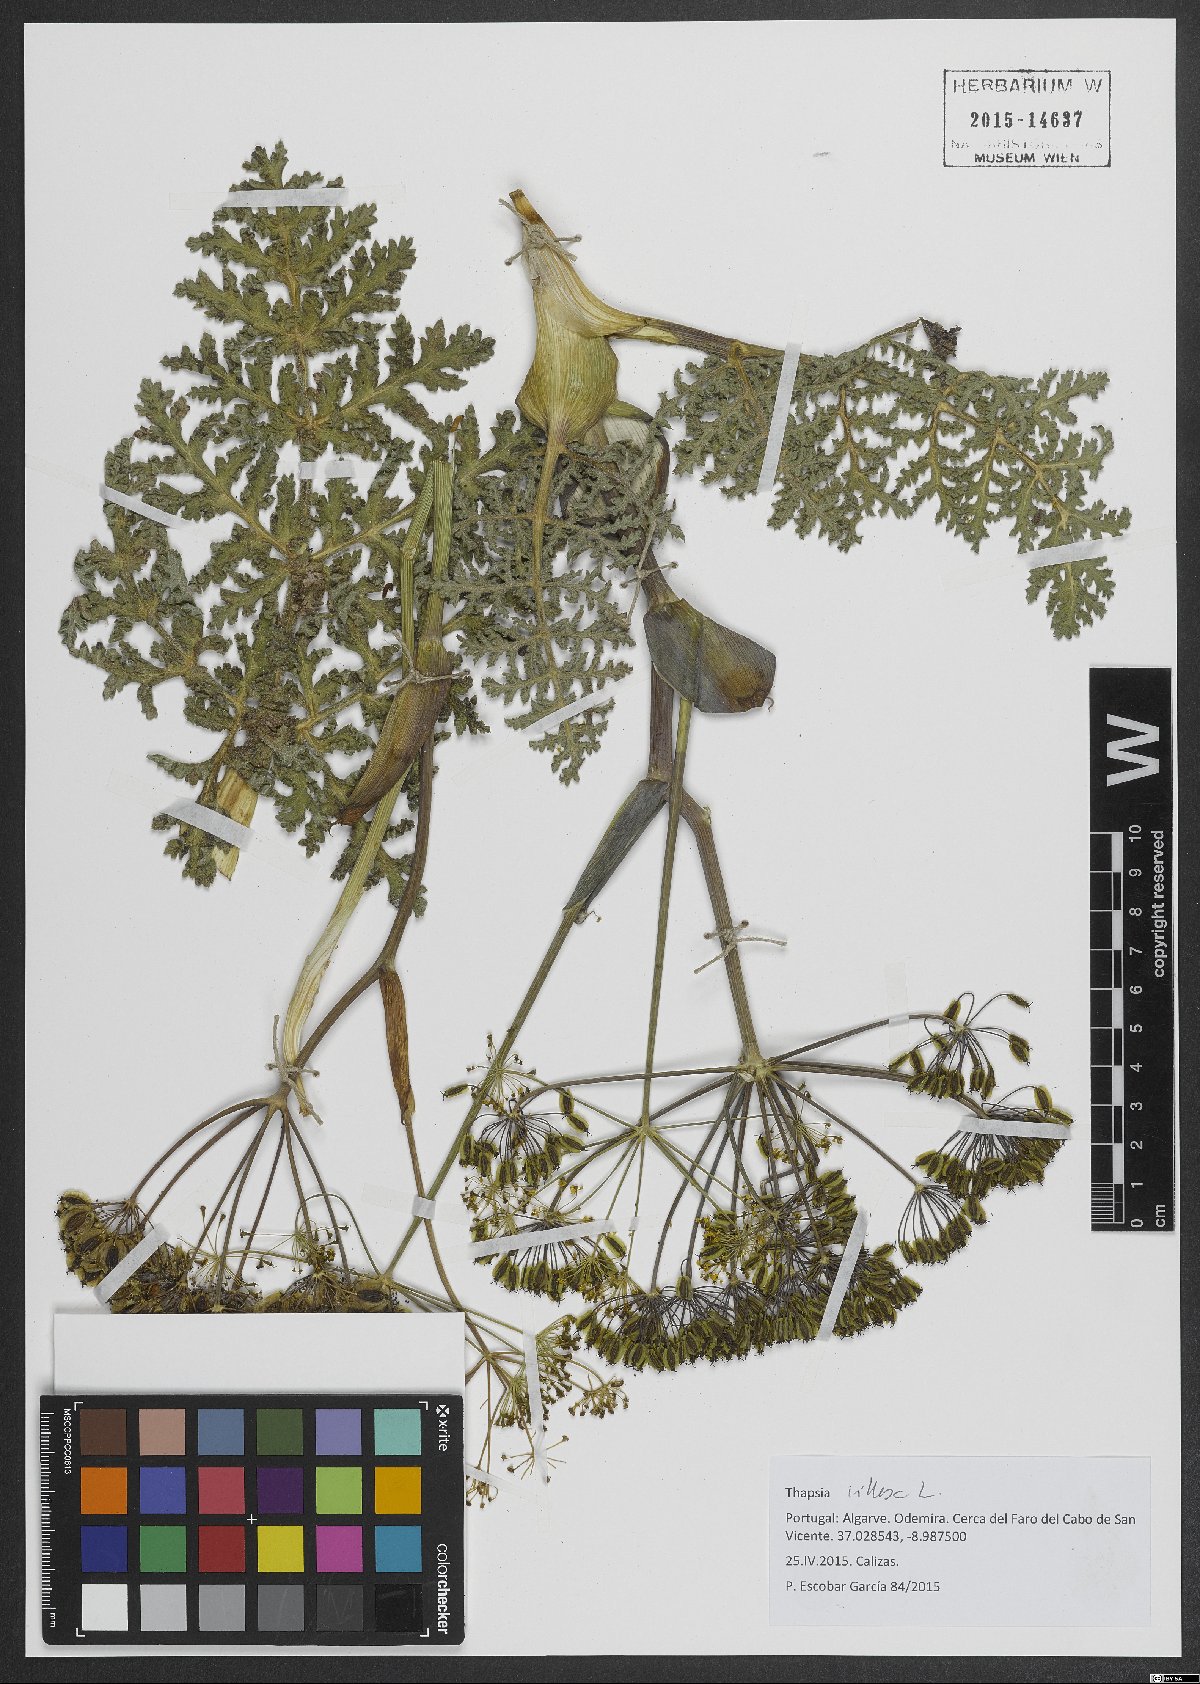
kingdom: Plantae
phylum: Tracheophyta
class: Magnoliopsida
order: Apiales
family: Apiaceae
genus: Thapsia
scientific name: Thapsia villosa
